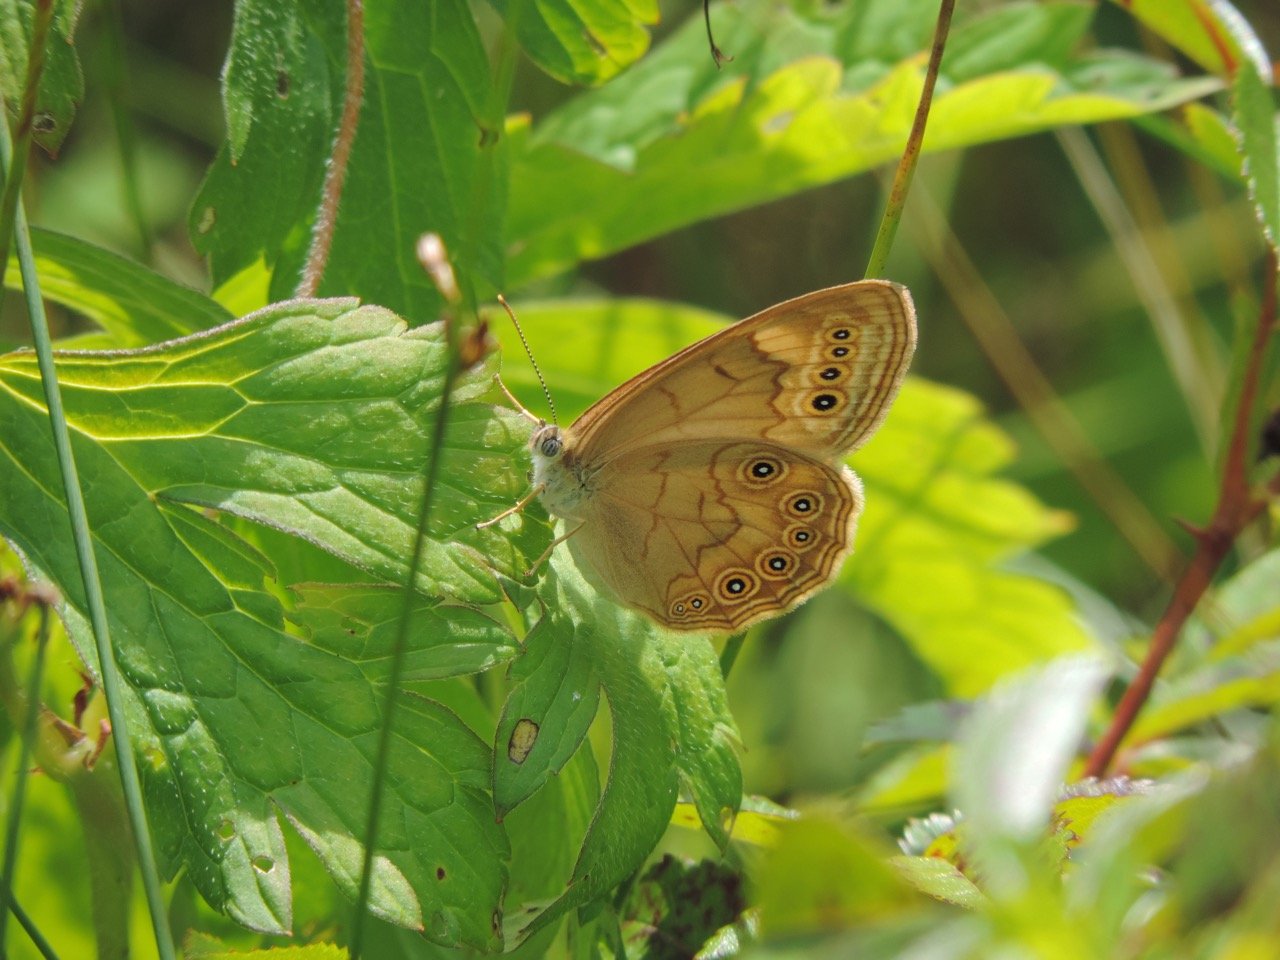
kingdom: Animalia
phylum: Arthropoda
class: Insecta
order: Lepidoptera
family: Nymphalidae
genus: Lethe
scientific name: Lethe eurydice
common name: Eyed Brown
